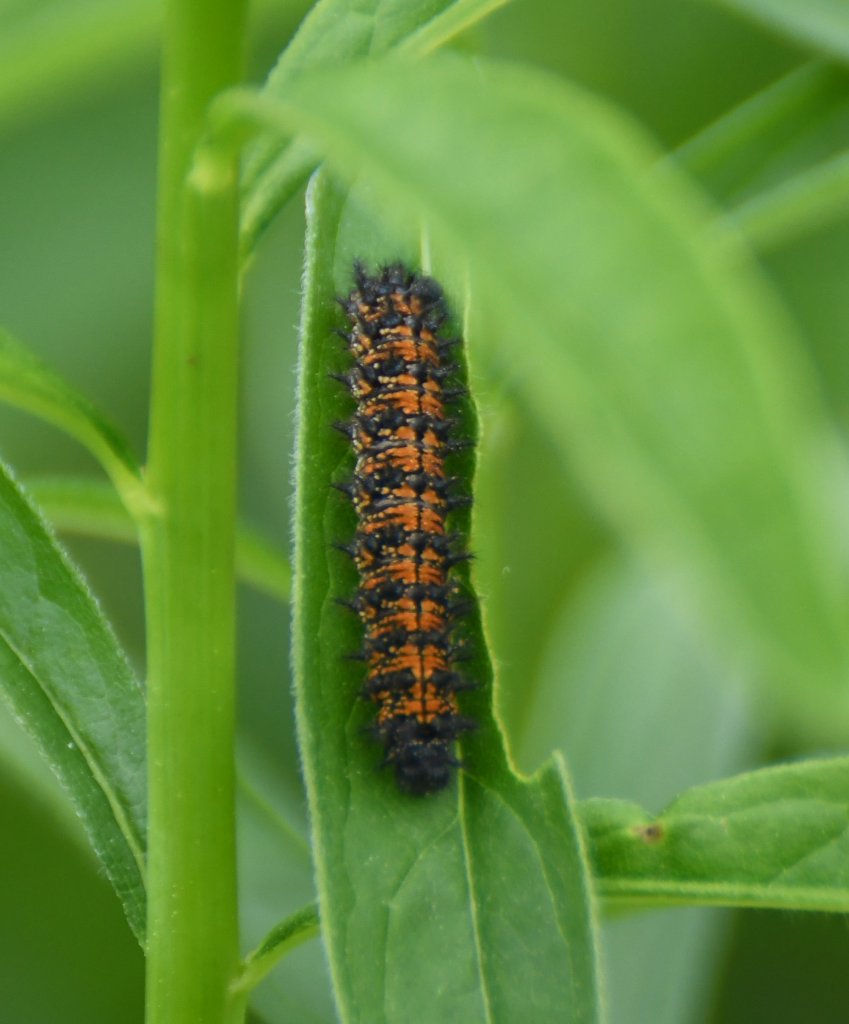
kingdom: Animalia
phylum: Arthropoda
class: Insecta
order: Lepidoptera
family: Nymphalidae
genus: Chlosyne
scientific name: Chlosyne harrisii
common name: Harris's Checkerspot
